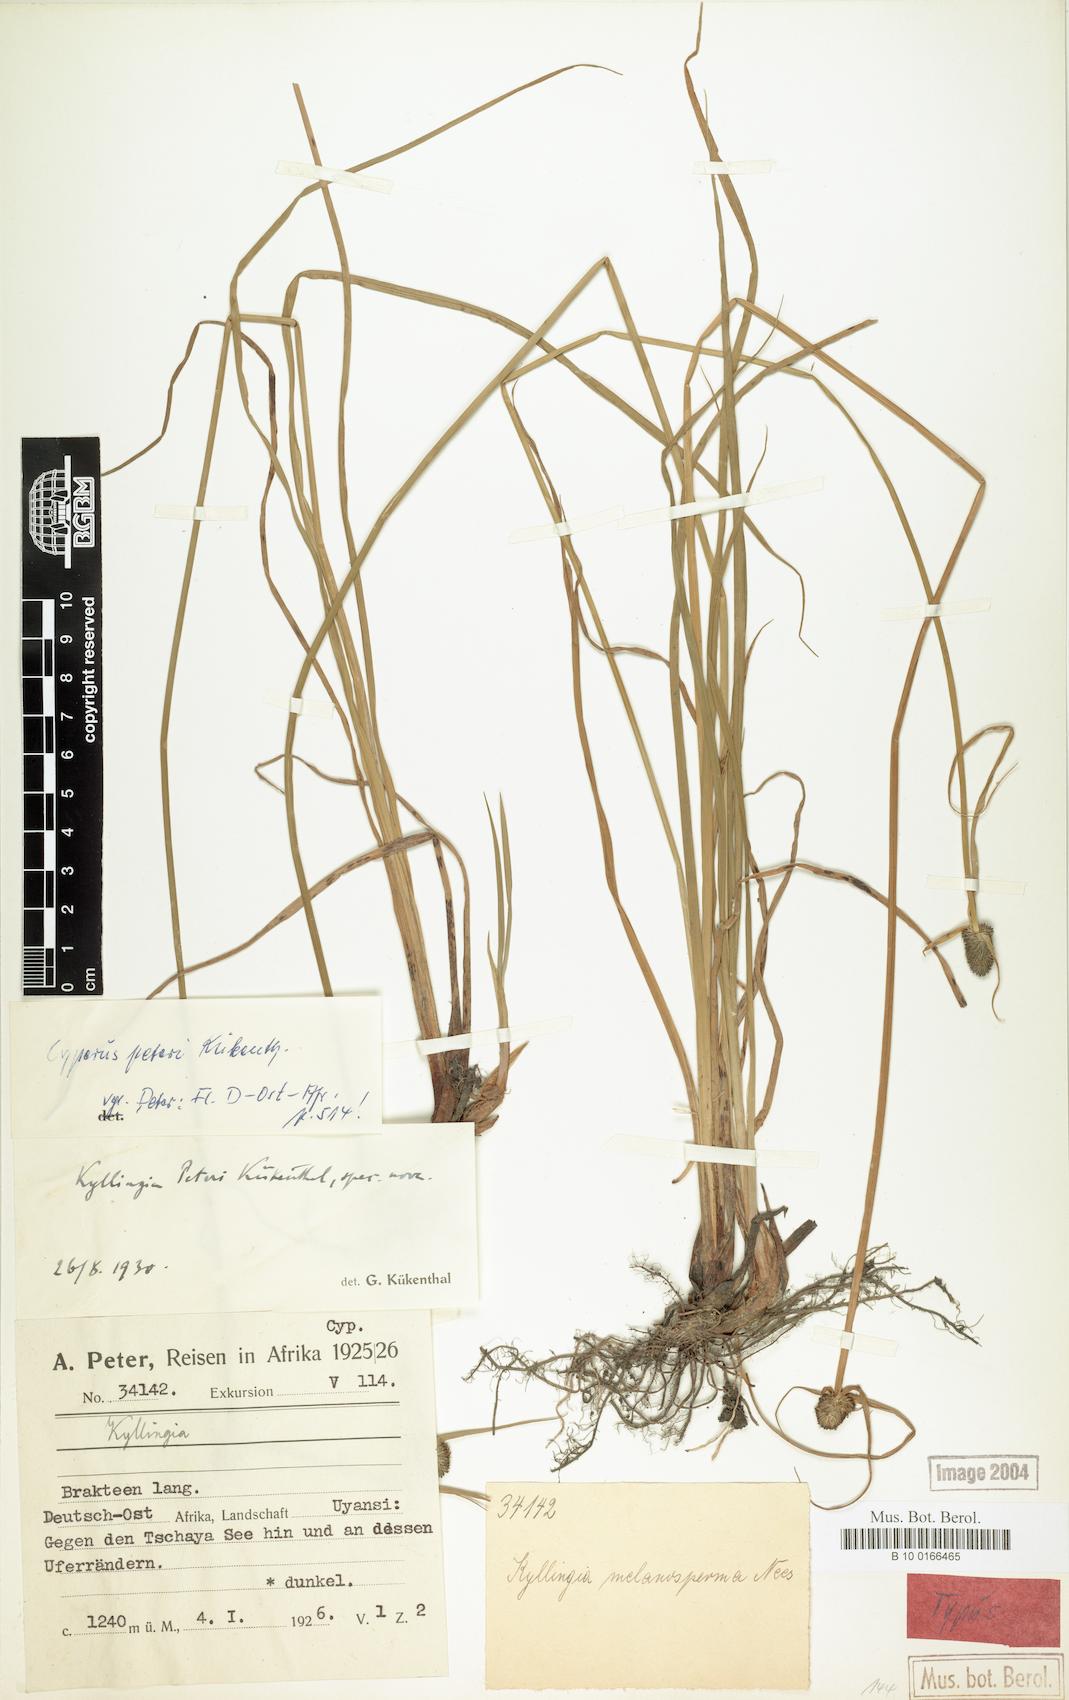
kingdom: Plantae
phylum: Tracheophyta
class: Liliopsida
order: Poales
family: Cyperaceae
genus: Cyperus
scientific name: Cyperus peteri
